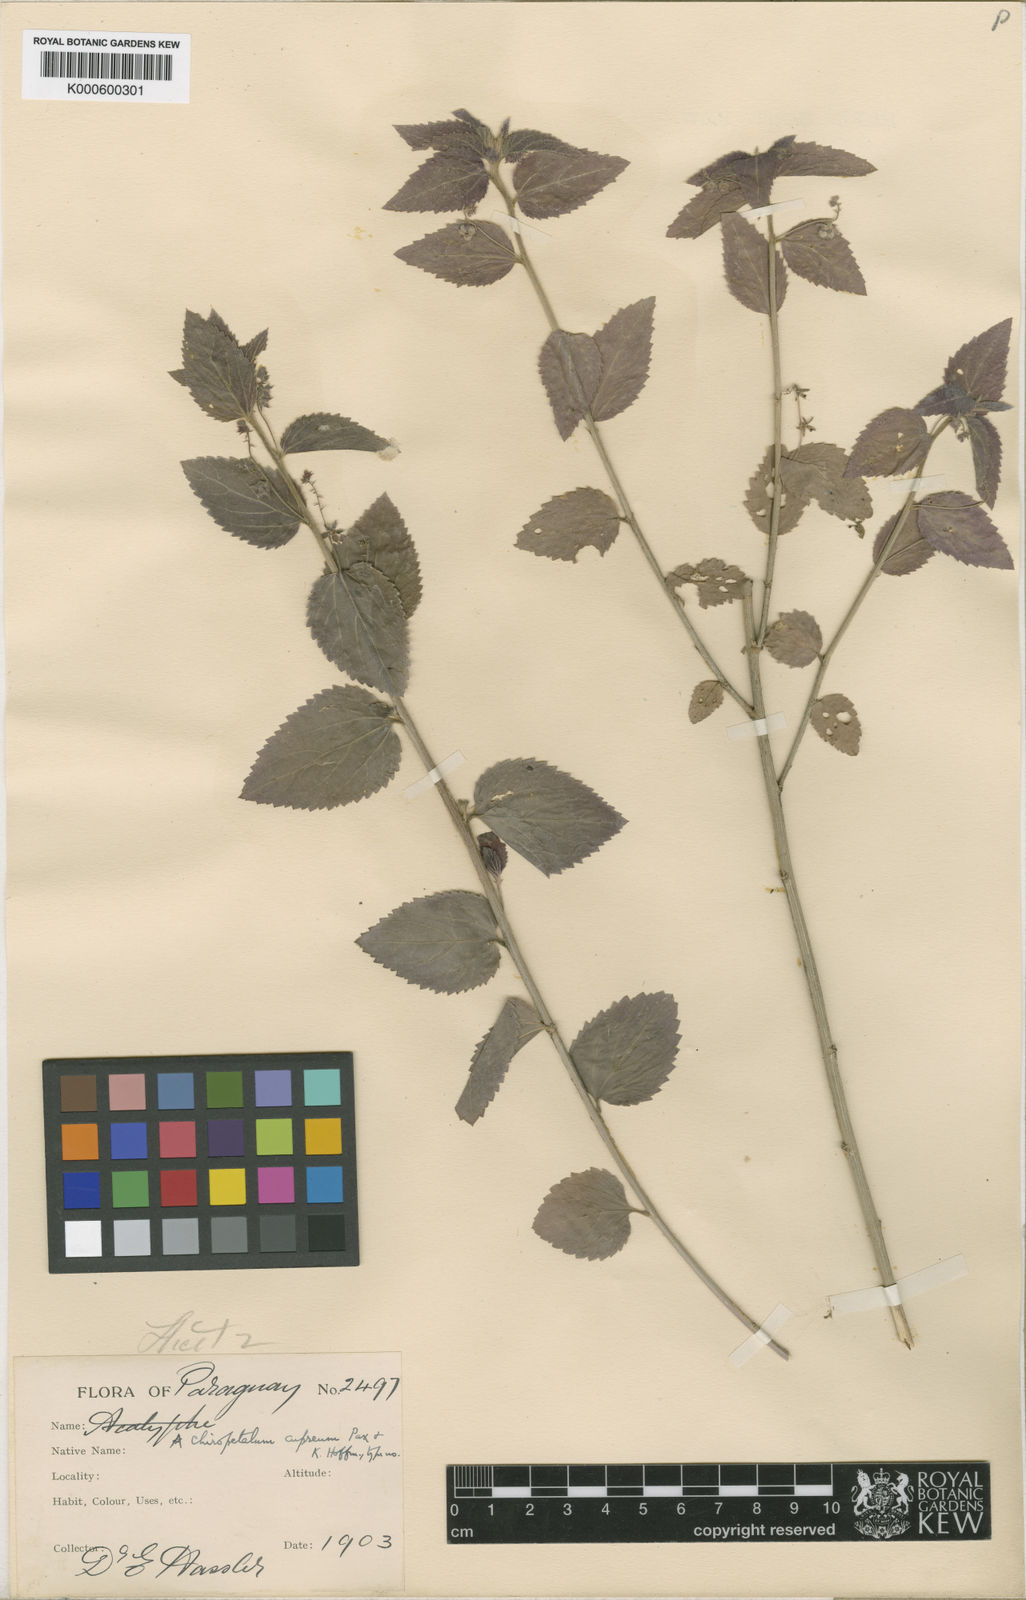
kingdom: Plantae
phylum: Tracheophyta
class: Magnoliopsida
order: Malpighiales
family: Euphorbiaceae
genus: Chiropetalum
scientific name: Chiropetalum griseum
